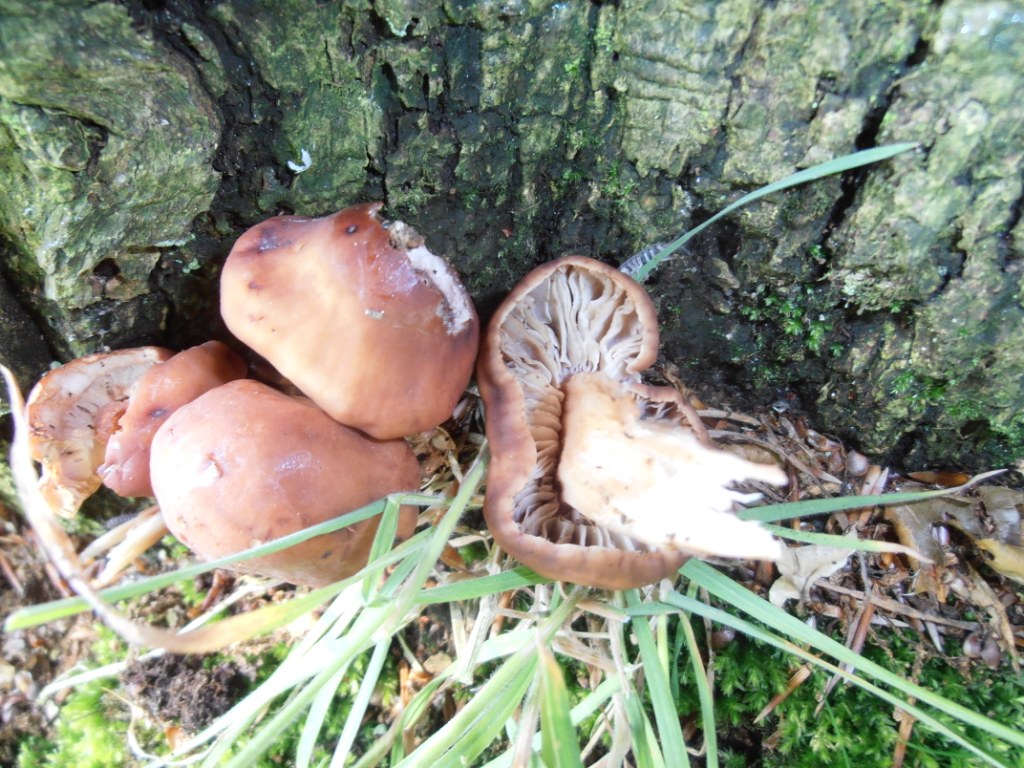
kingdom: Fungi
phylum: Basidiomycota
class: Agaricomycetes
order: Agaricales
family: Omphalotaceae
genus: Gymnopus
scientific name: Gymnopus fusipes
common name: tenstokket fladhat
